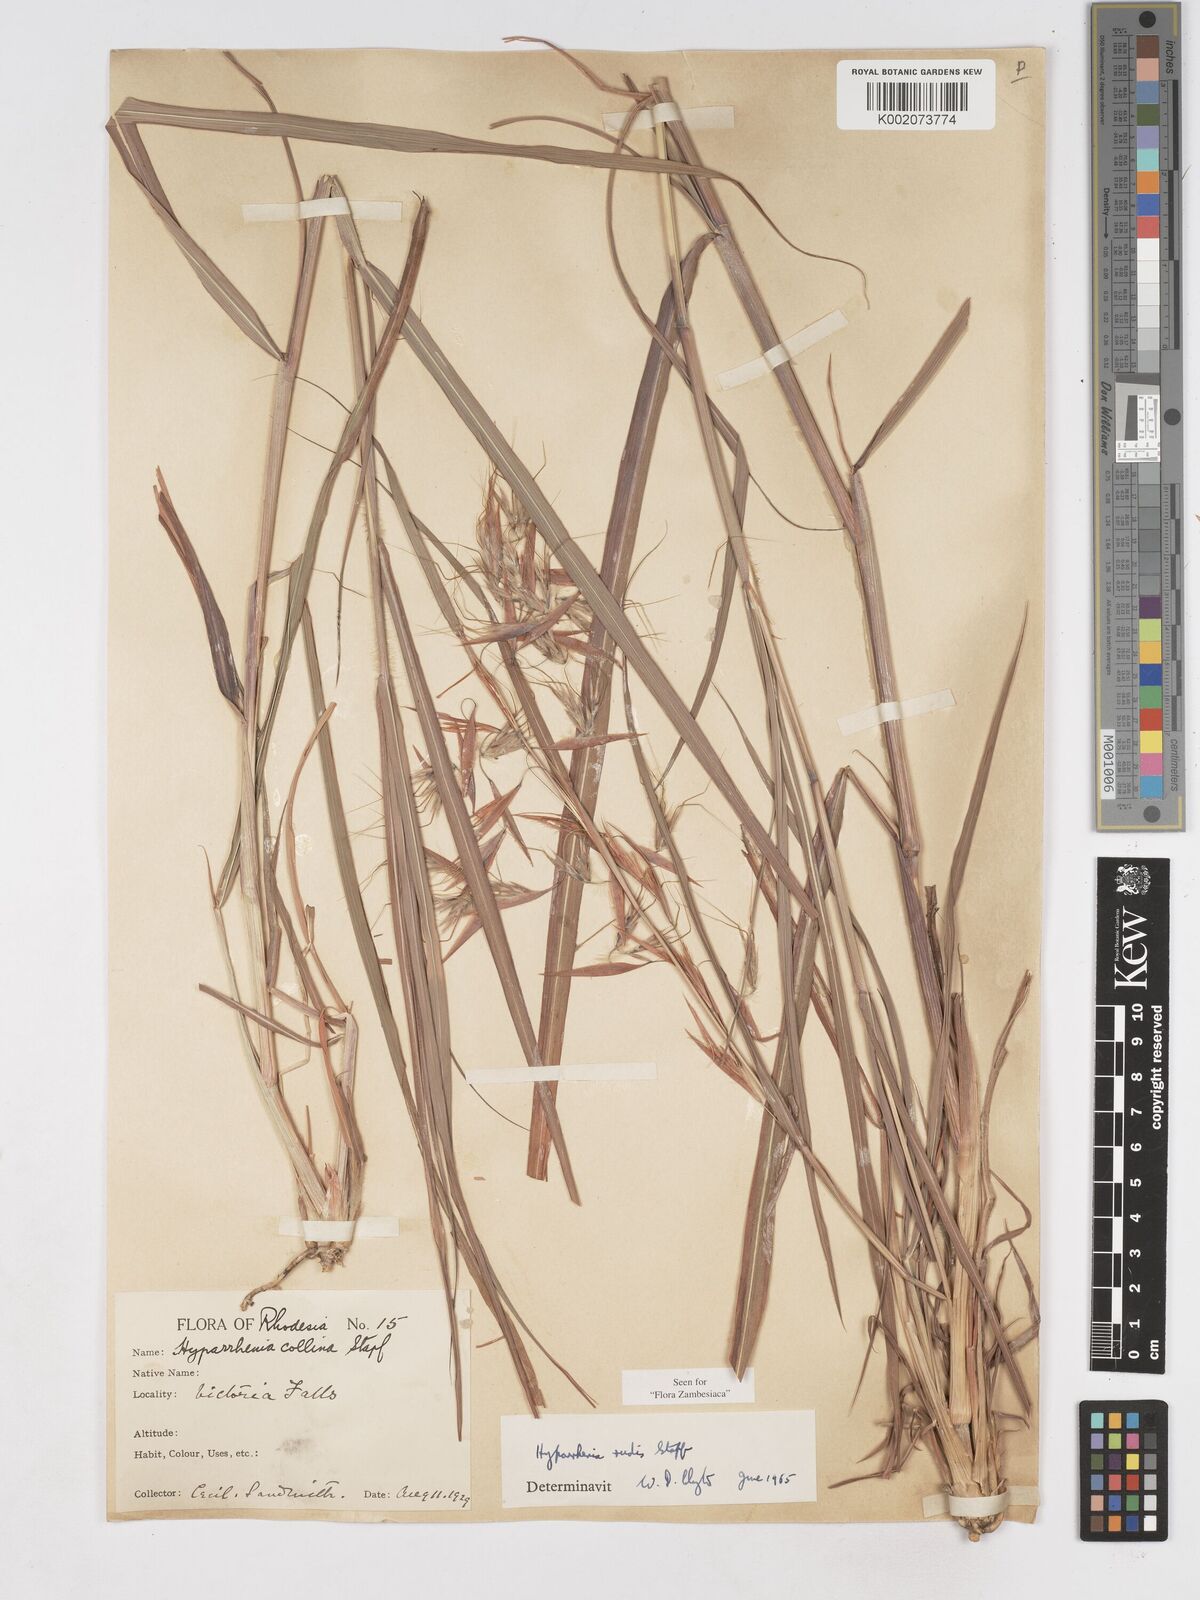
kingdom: Plantae
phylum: Tracheophyta
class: Liliopsida
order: Poales
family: Poaceae
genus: Hyparrhenia
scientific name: Hyparrhenia rudis
